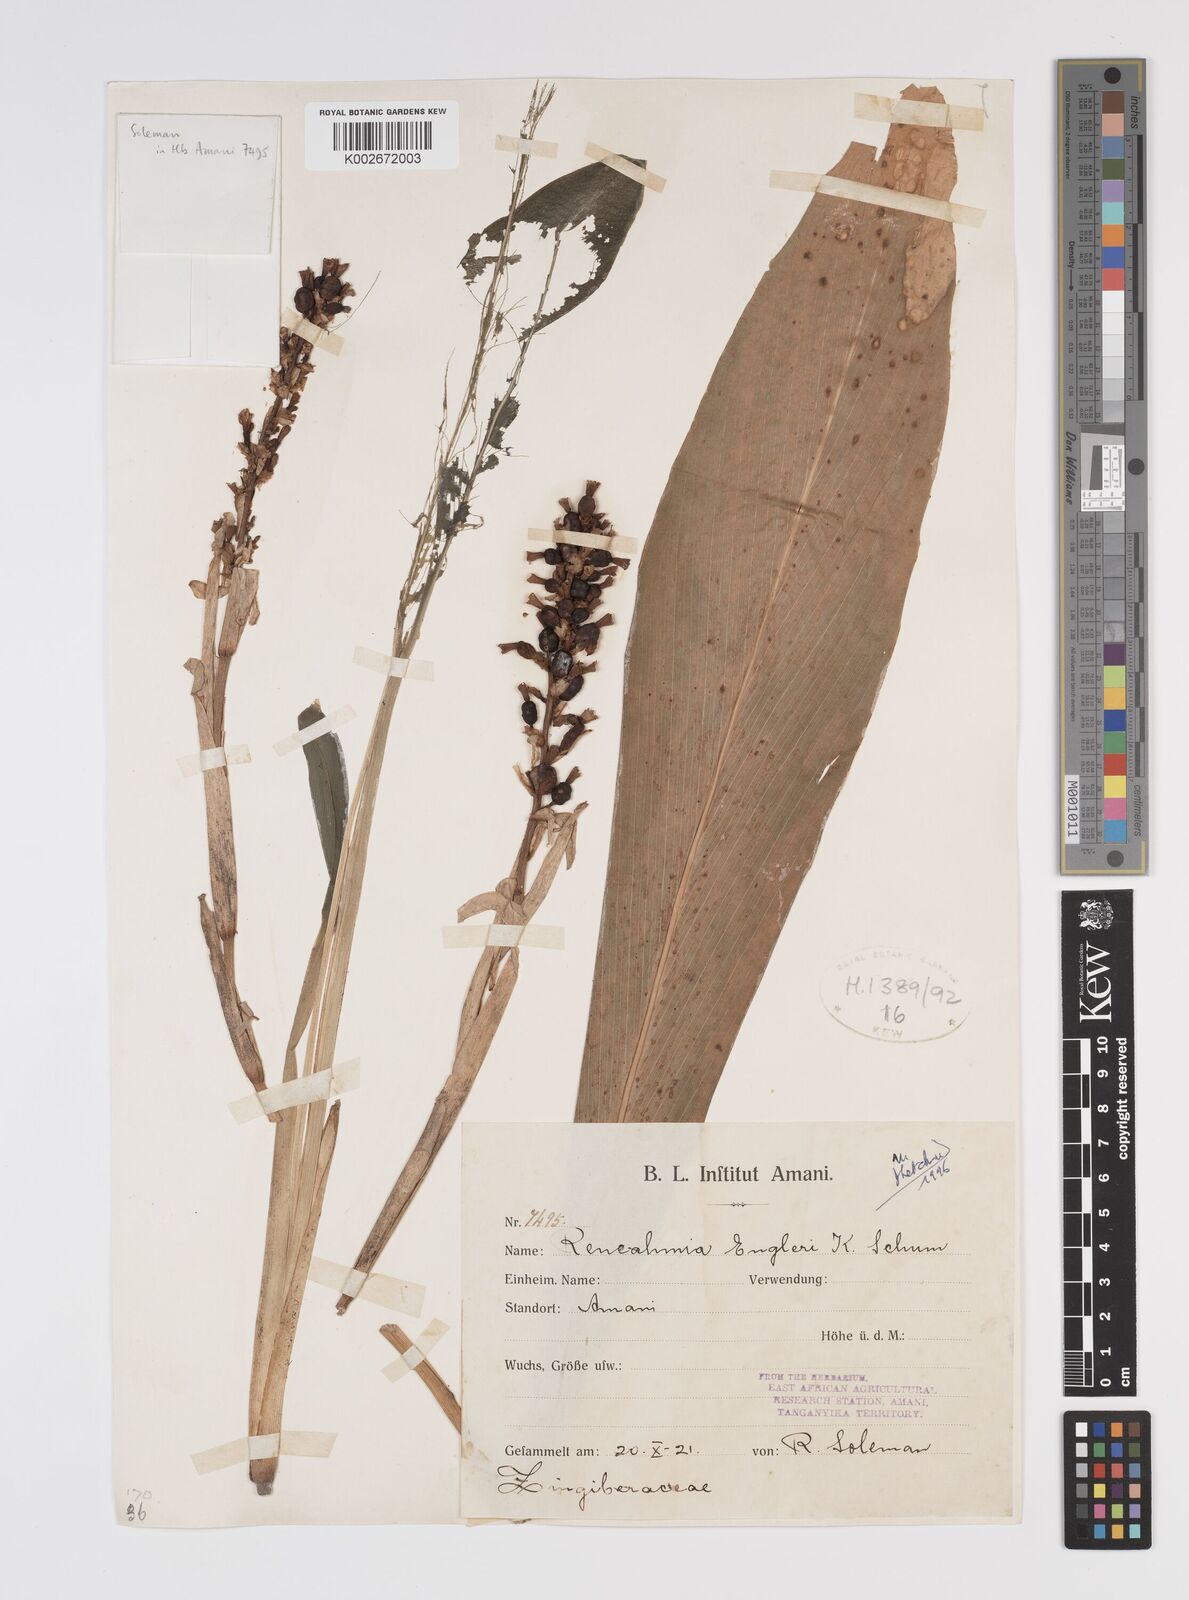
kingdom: Plantae
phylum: Tracheophyta
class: Liliopsida
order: Zingiberales
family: Zingiberaceae
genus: Renealmia
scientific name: Renealmia engleri
